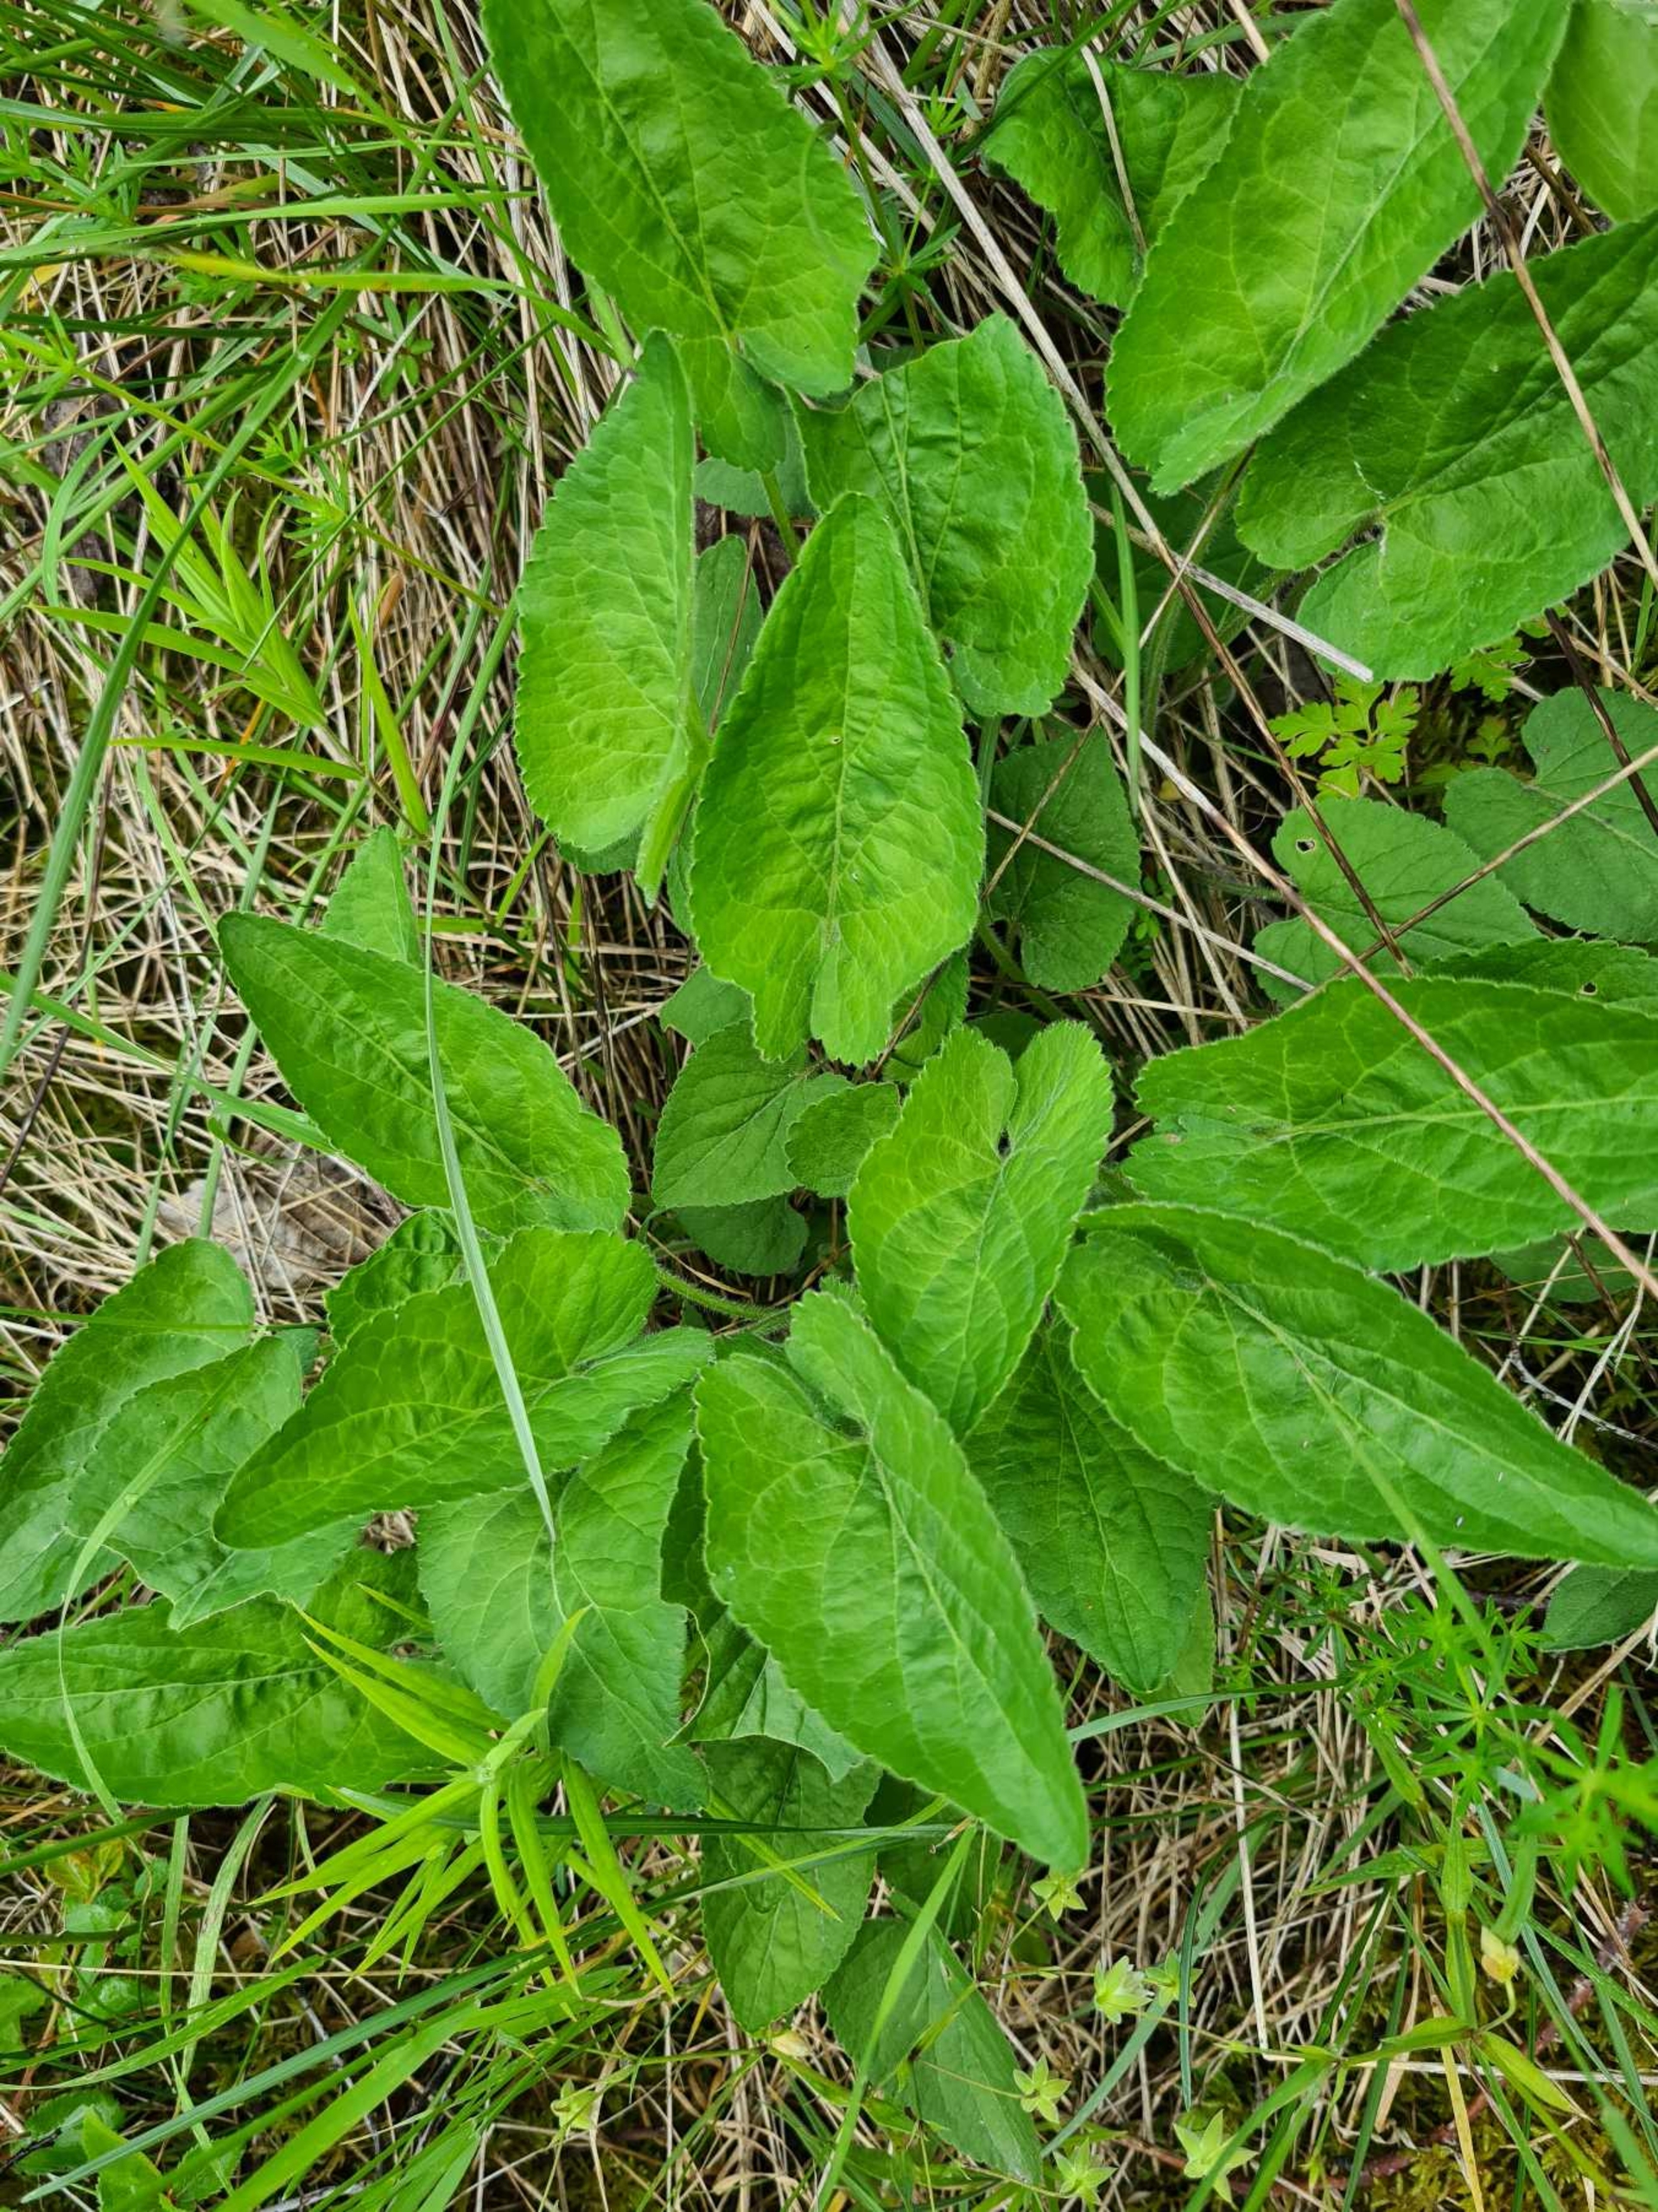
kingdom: Plantae
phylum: Tracheophyta
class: Magnoliopsida
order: Malpighiales
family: Violaceae
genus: Viola
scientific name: Viola hirta
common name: Håret viol
